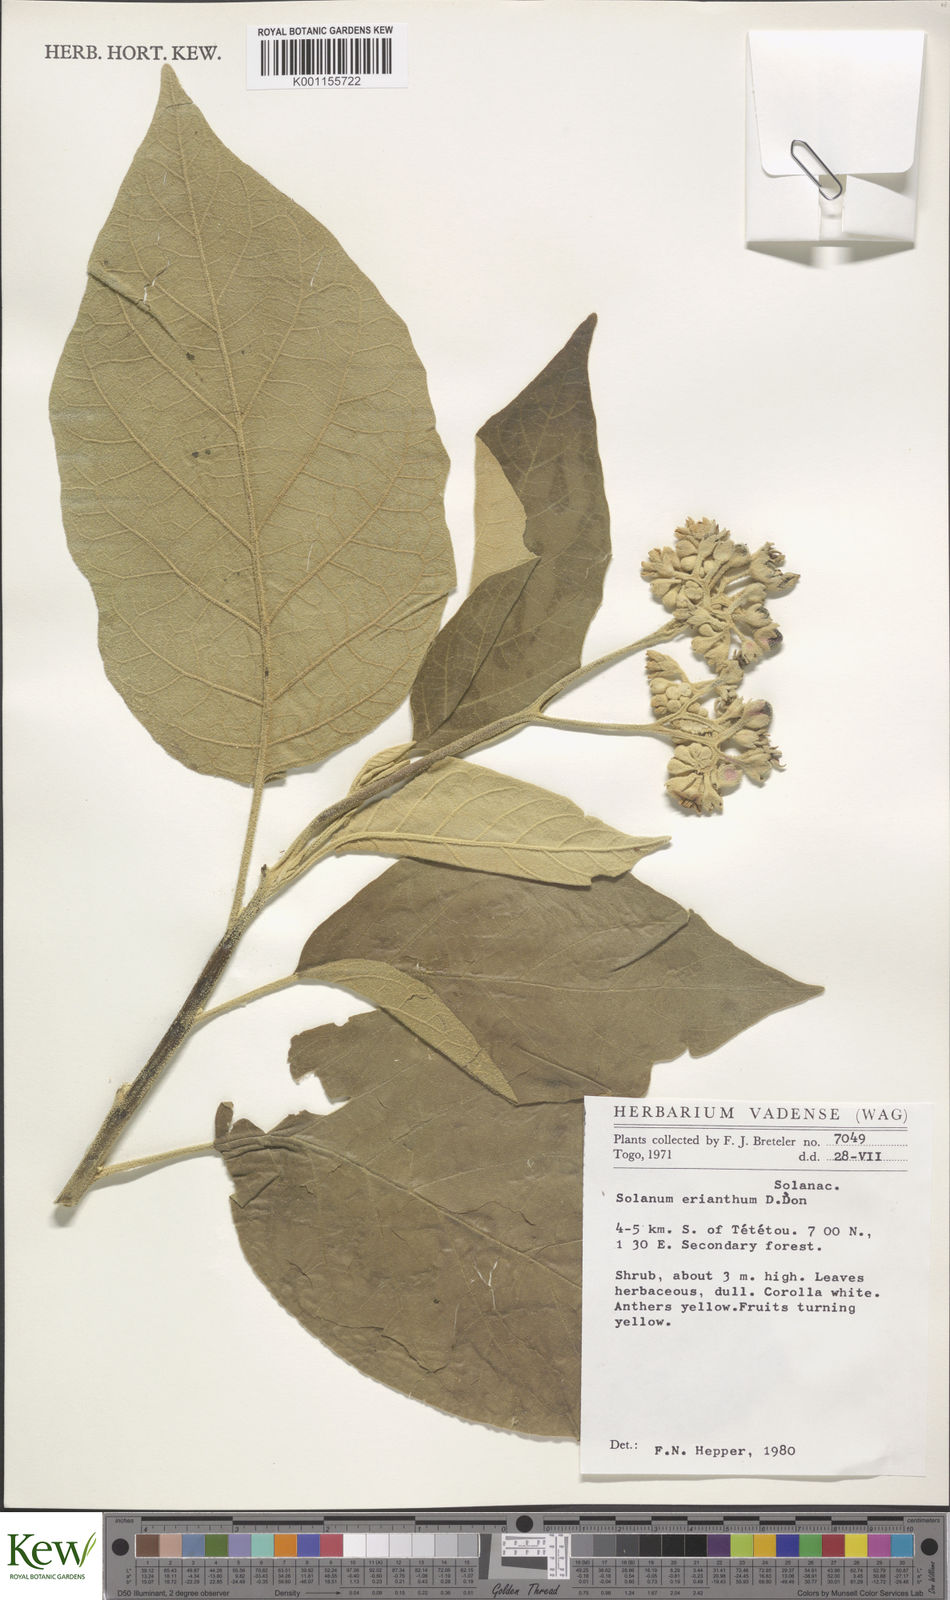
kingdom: Plantae
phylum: Tracheophyta
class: Magnoliopsida
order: Solanales
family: Solanaceae
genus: Solanum
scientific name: Solanum erianthum
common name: Tobacco-tree
